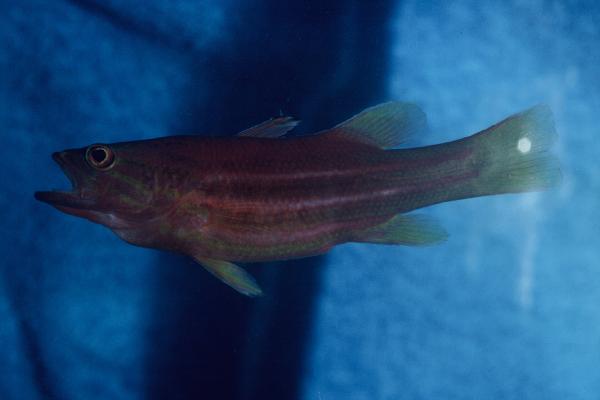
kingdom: Animalia
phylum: Chordata
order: Perciformes
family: Serranidae
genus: Liopropoma
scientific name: Liopropoma africanum
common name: African basslet
